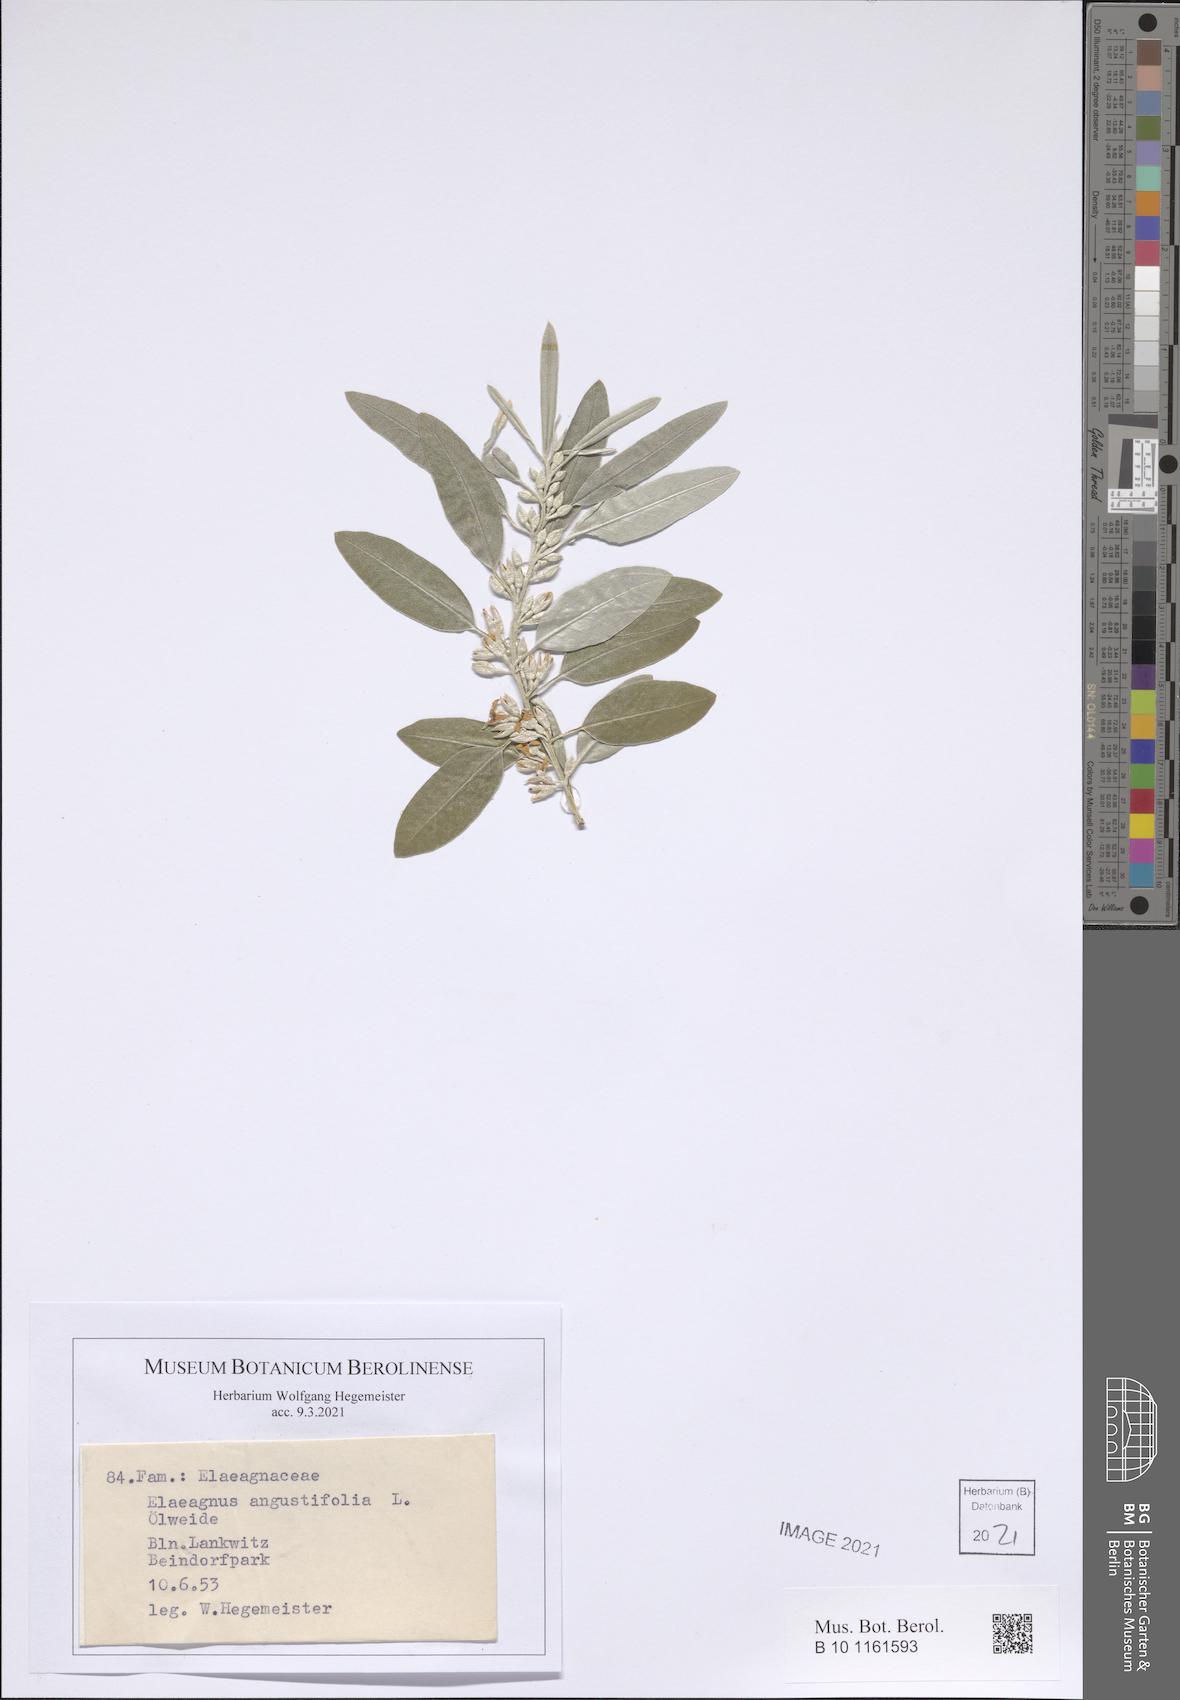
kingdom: Plantae
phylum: Tracheophyta
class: Magnoliopsida
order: Rosales
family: Elaeagnaceae
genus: Elaeagnus
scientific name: Elaeagnus angustifolia
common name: Russian olive
